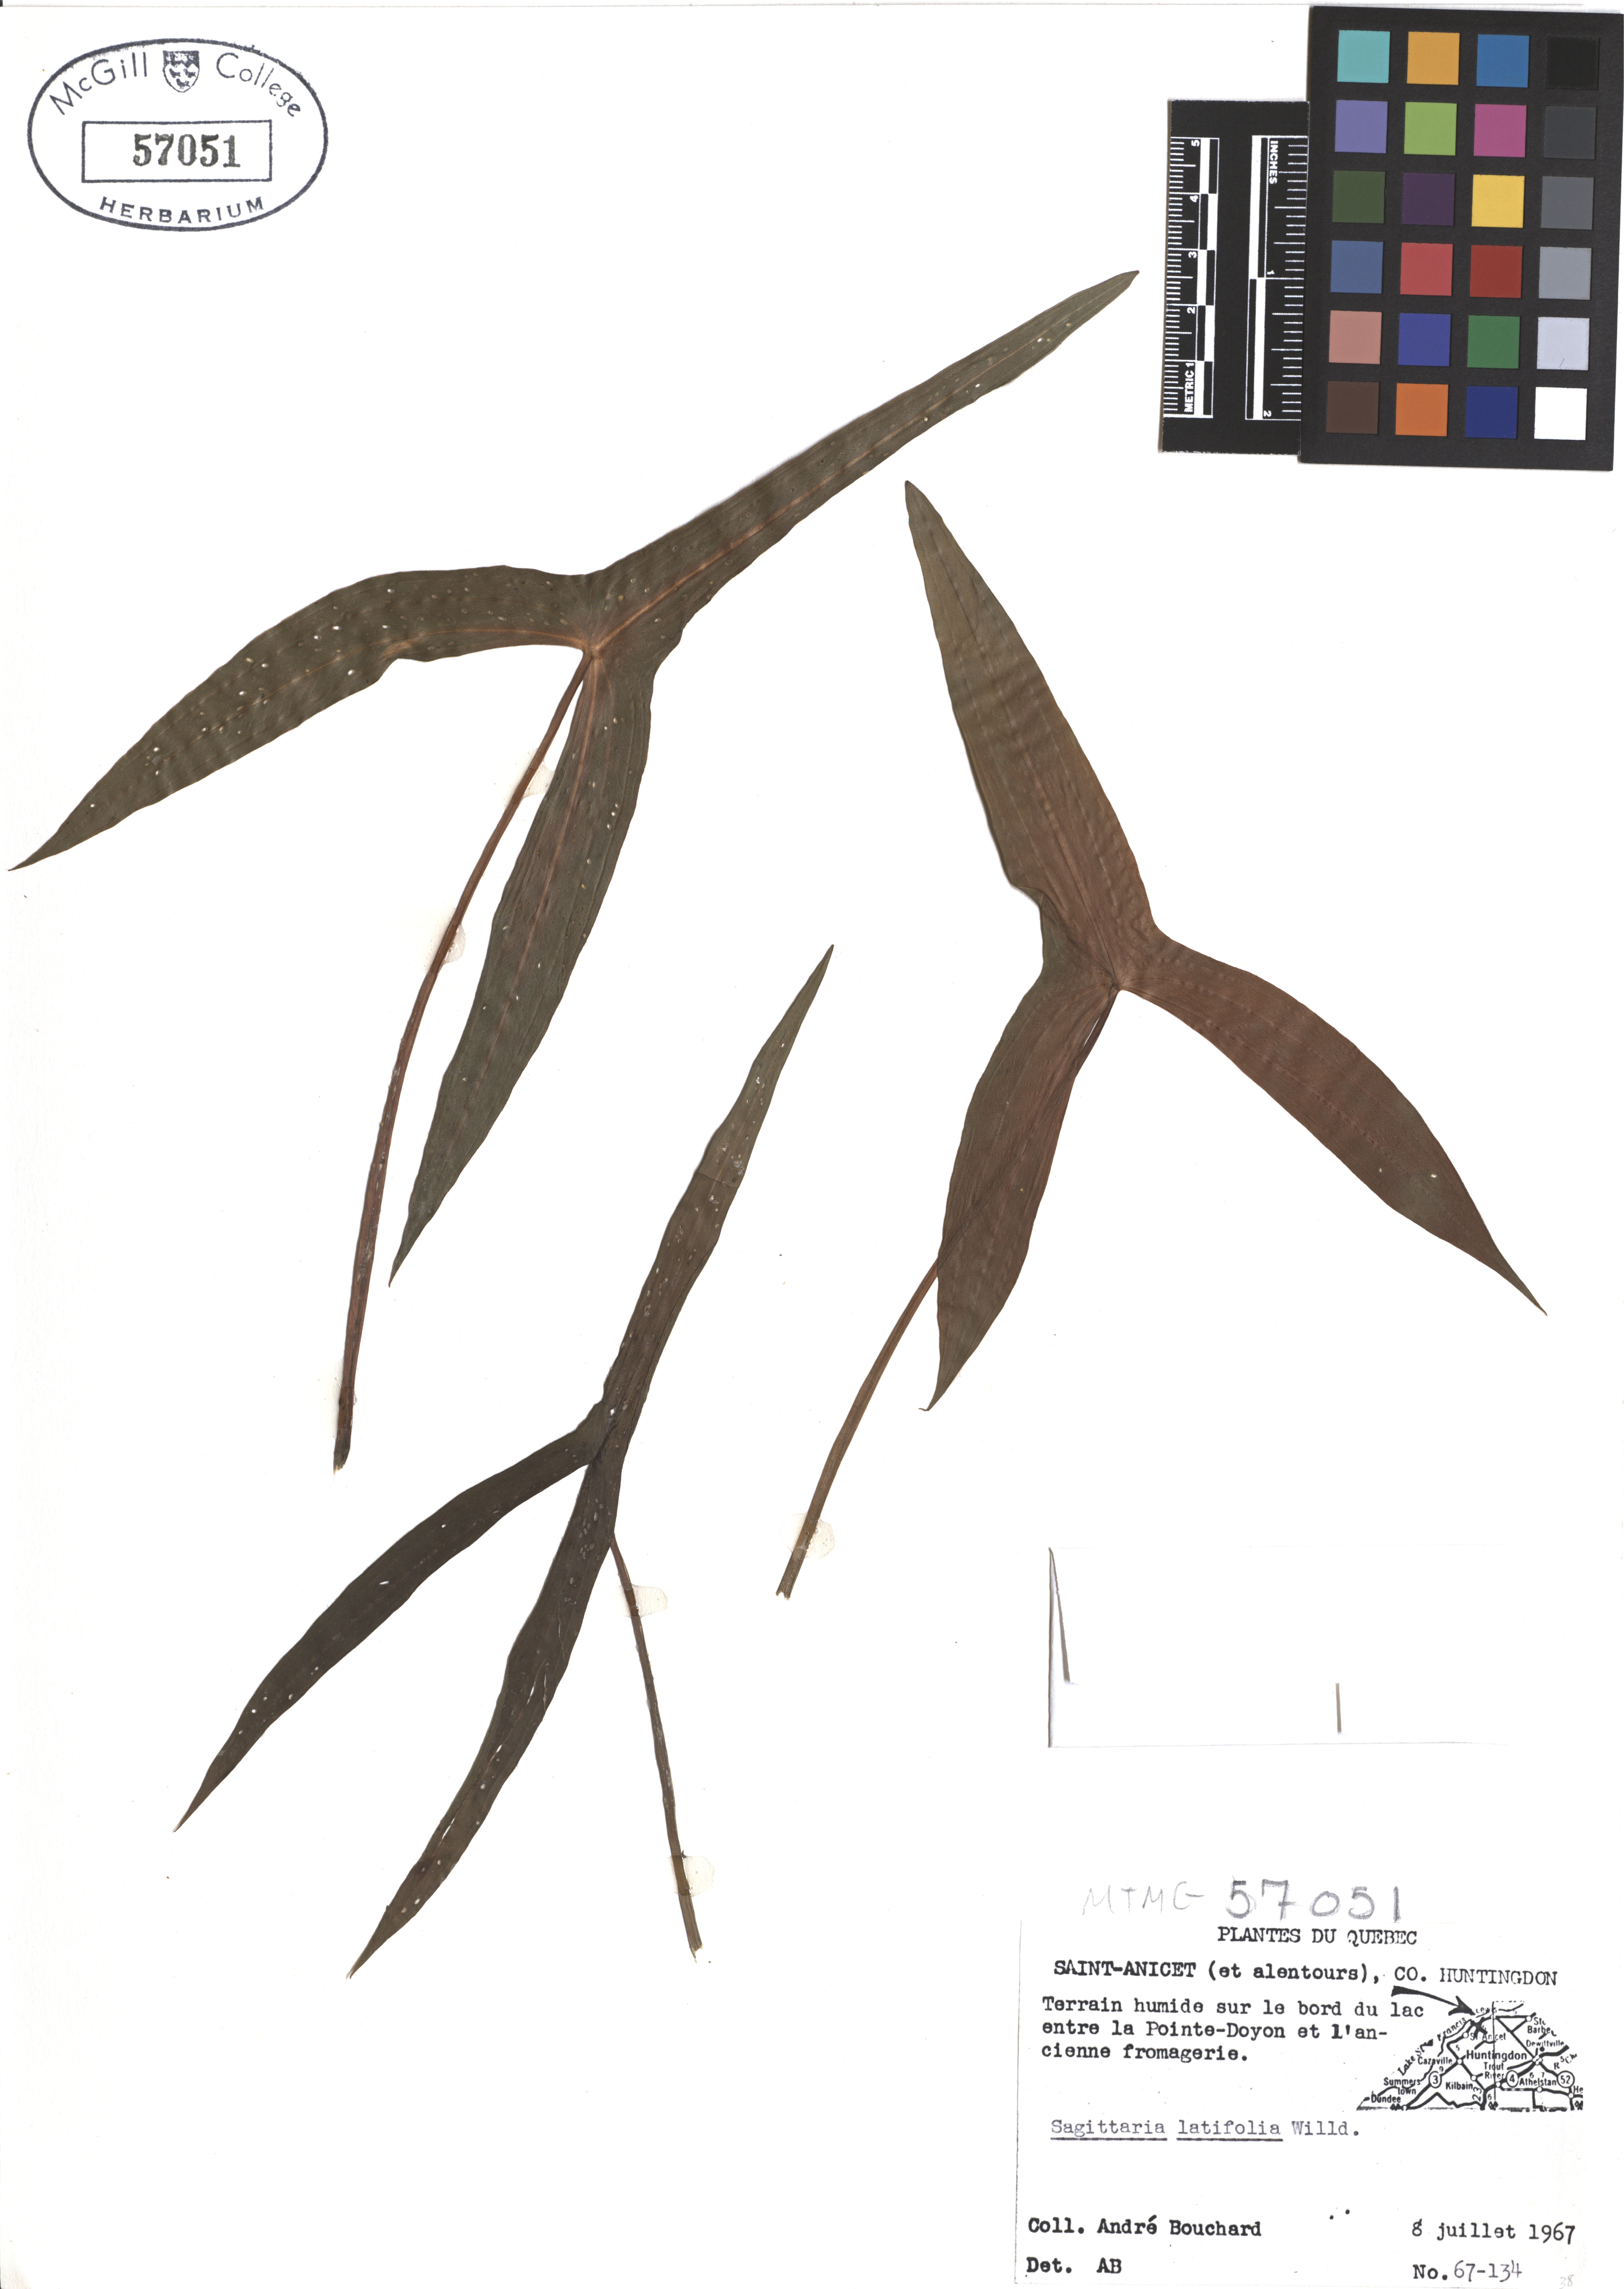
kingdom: Plantae
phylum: Tracheophyta
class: Liliopsida
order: Alismatales
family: Alismataceae
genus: Sagittaria
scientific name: Sagittaria latifolia
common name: Duck-potato
